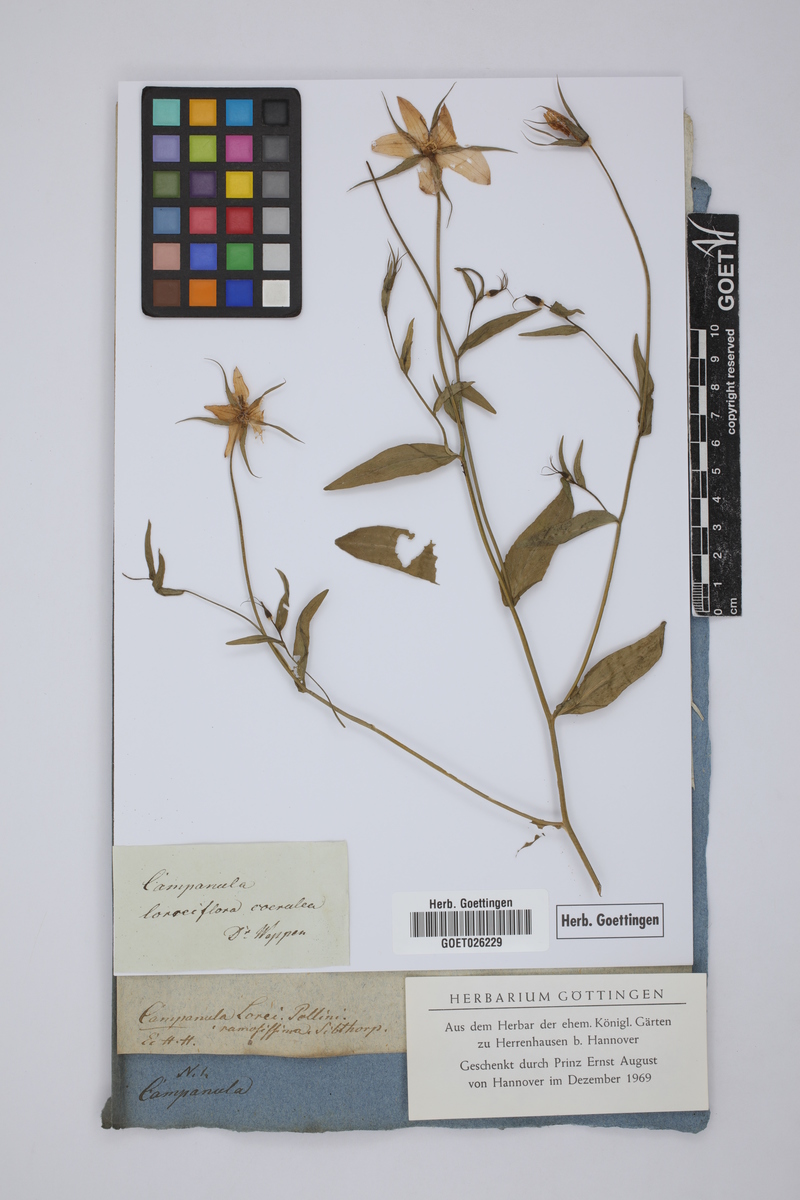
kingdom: Plantae
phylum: Tracheophyta
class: Magnoliopsida
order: Asterales
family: Campanulaceae
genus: Campanula
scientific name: Campanula ramosissima
